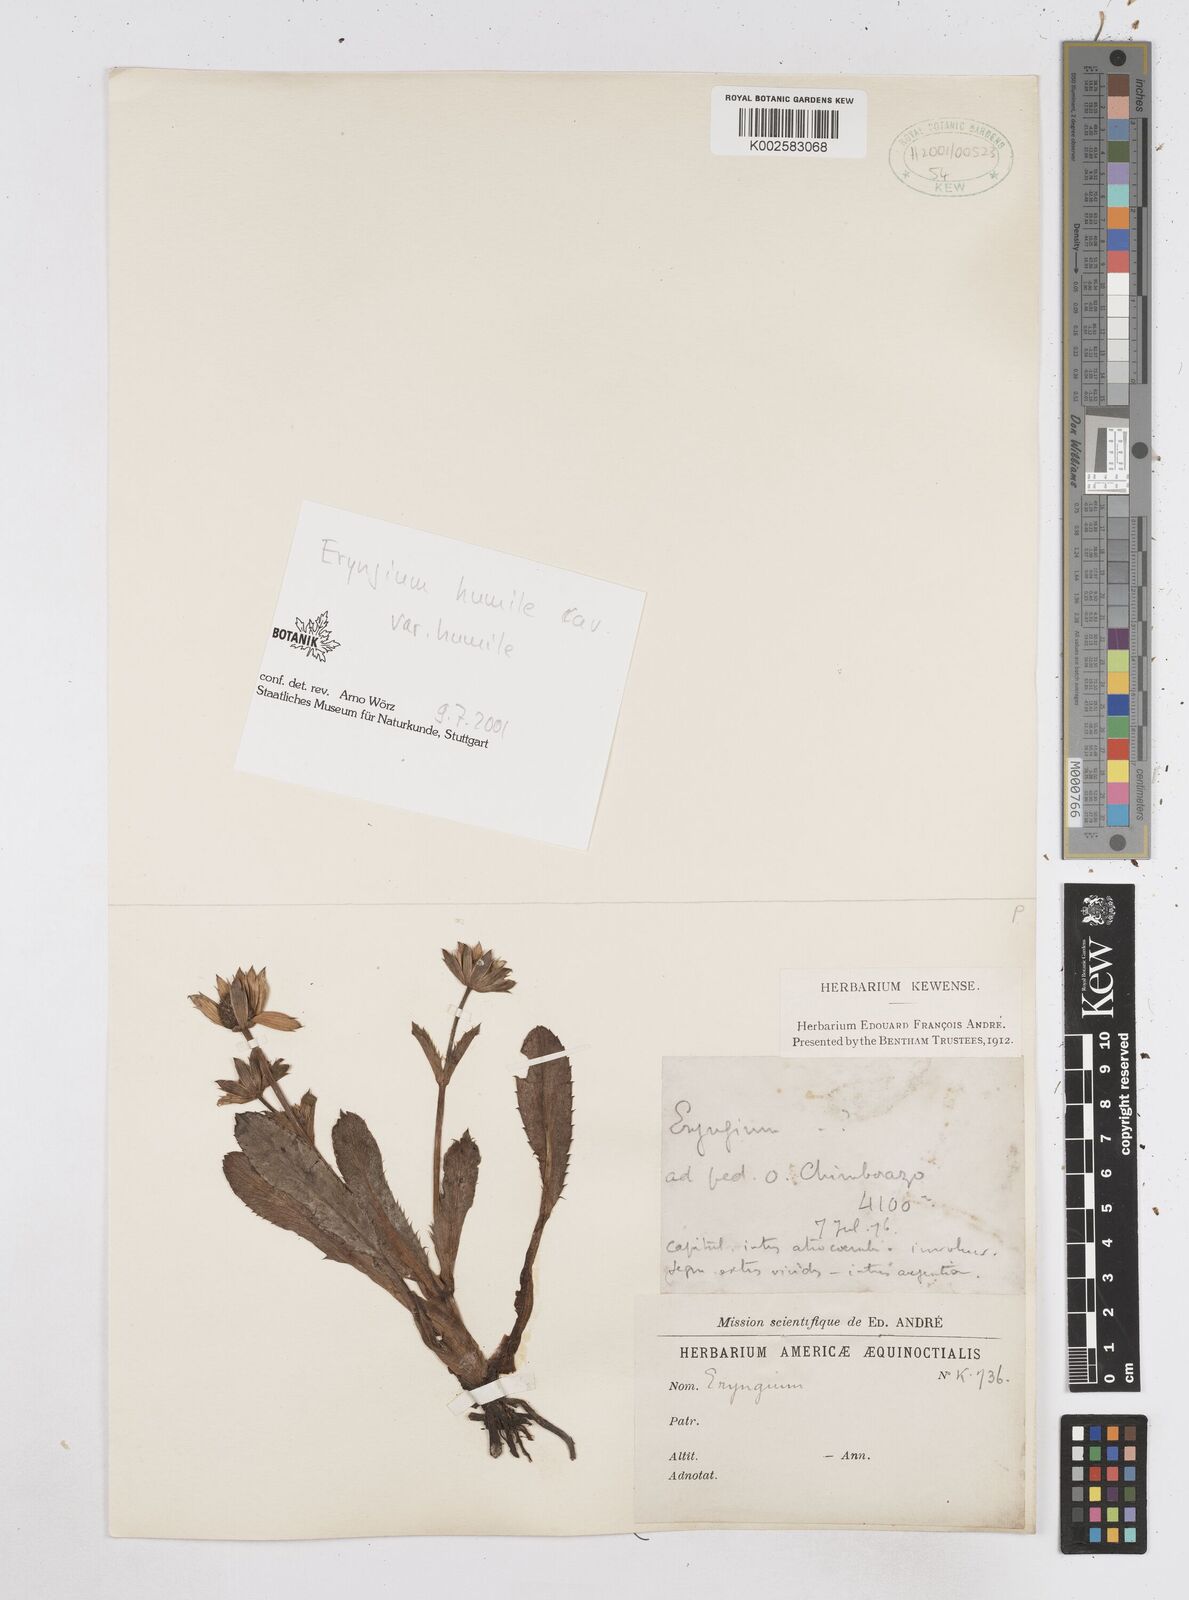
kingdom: Plantae
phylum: Tracheophyta
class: Magnoliopsida
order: Apiales
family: Apiaceae
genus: Eryngium
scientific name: Eryngium humile
